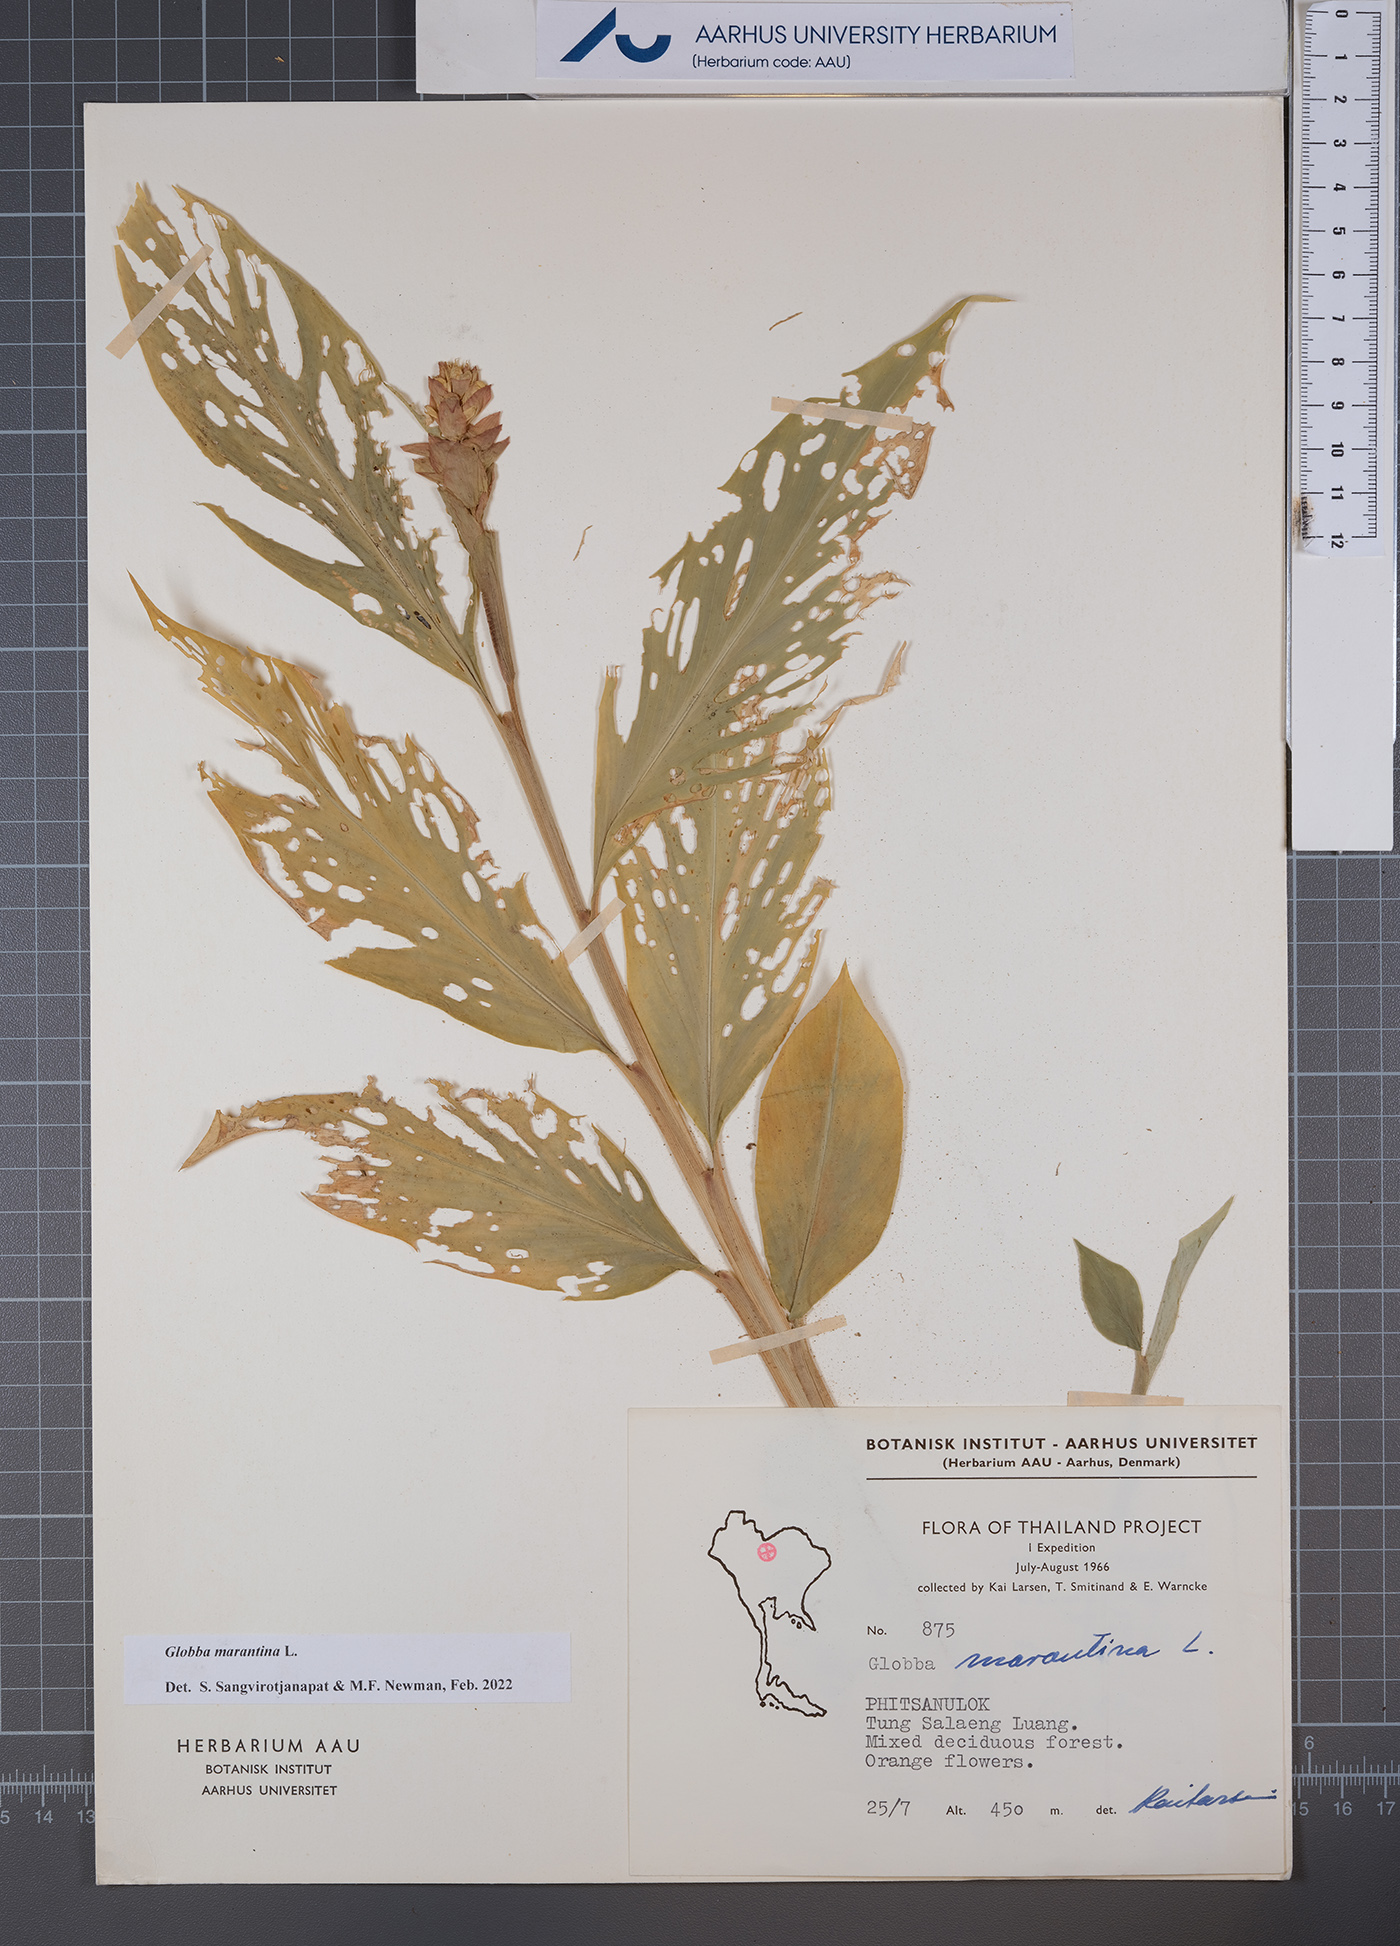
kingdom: Plantae
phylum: Tracheophyta
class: Liliopsida
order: Zingiberales
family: Zingiberaceae
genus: Globba
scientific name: Globba marantina
